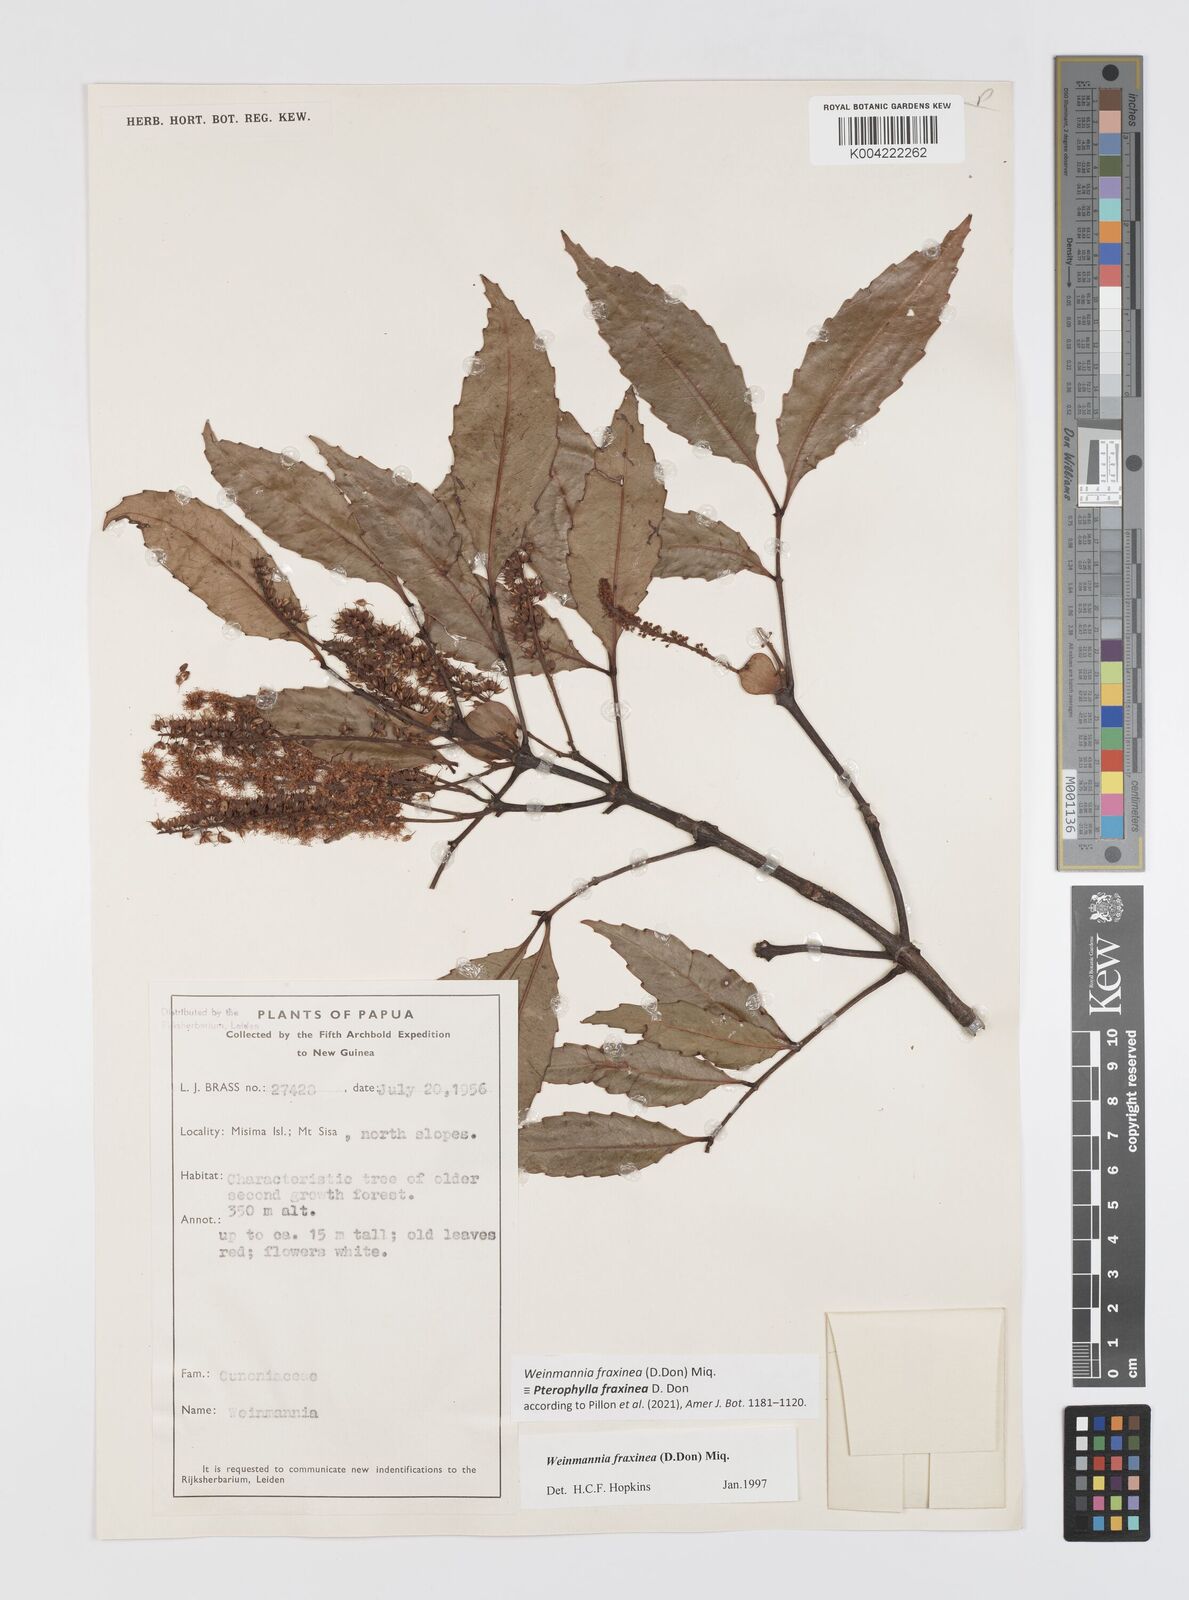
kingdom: Plantae
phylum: Tracheophyta
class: Magnoliopsida
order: Oxalidales
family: Cunoniaceae
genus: Pterophylla
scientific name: Pterophylla fraxinea
